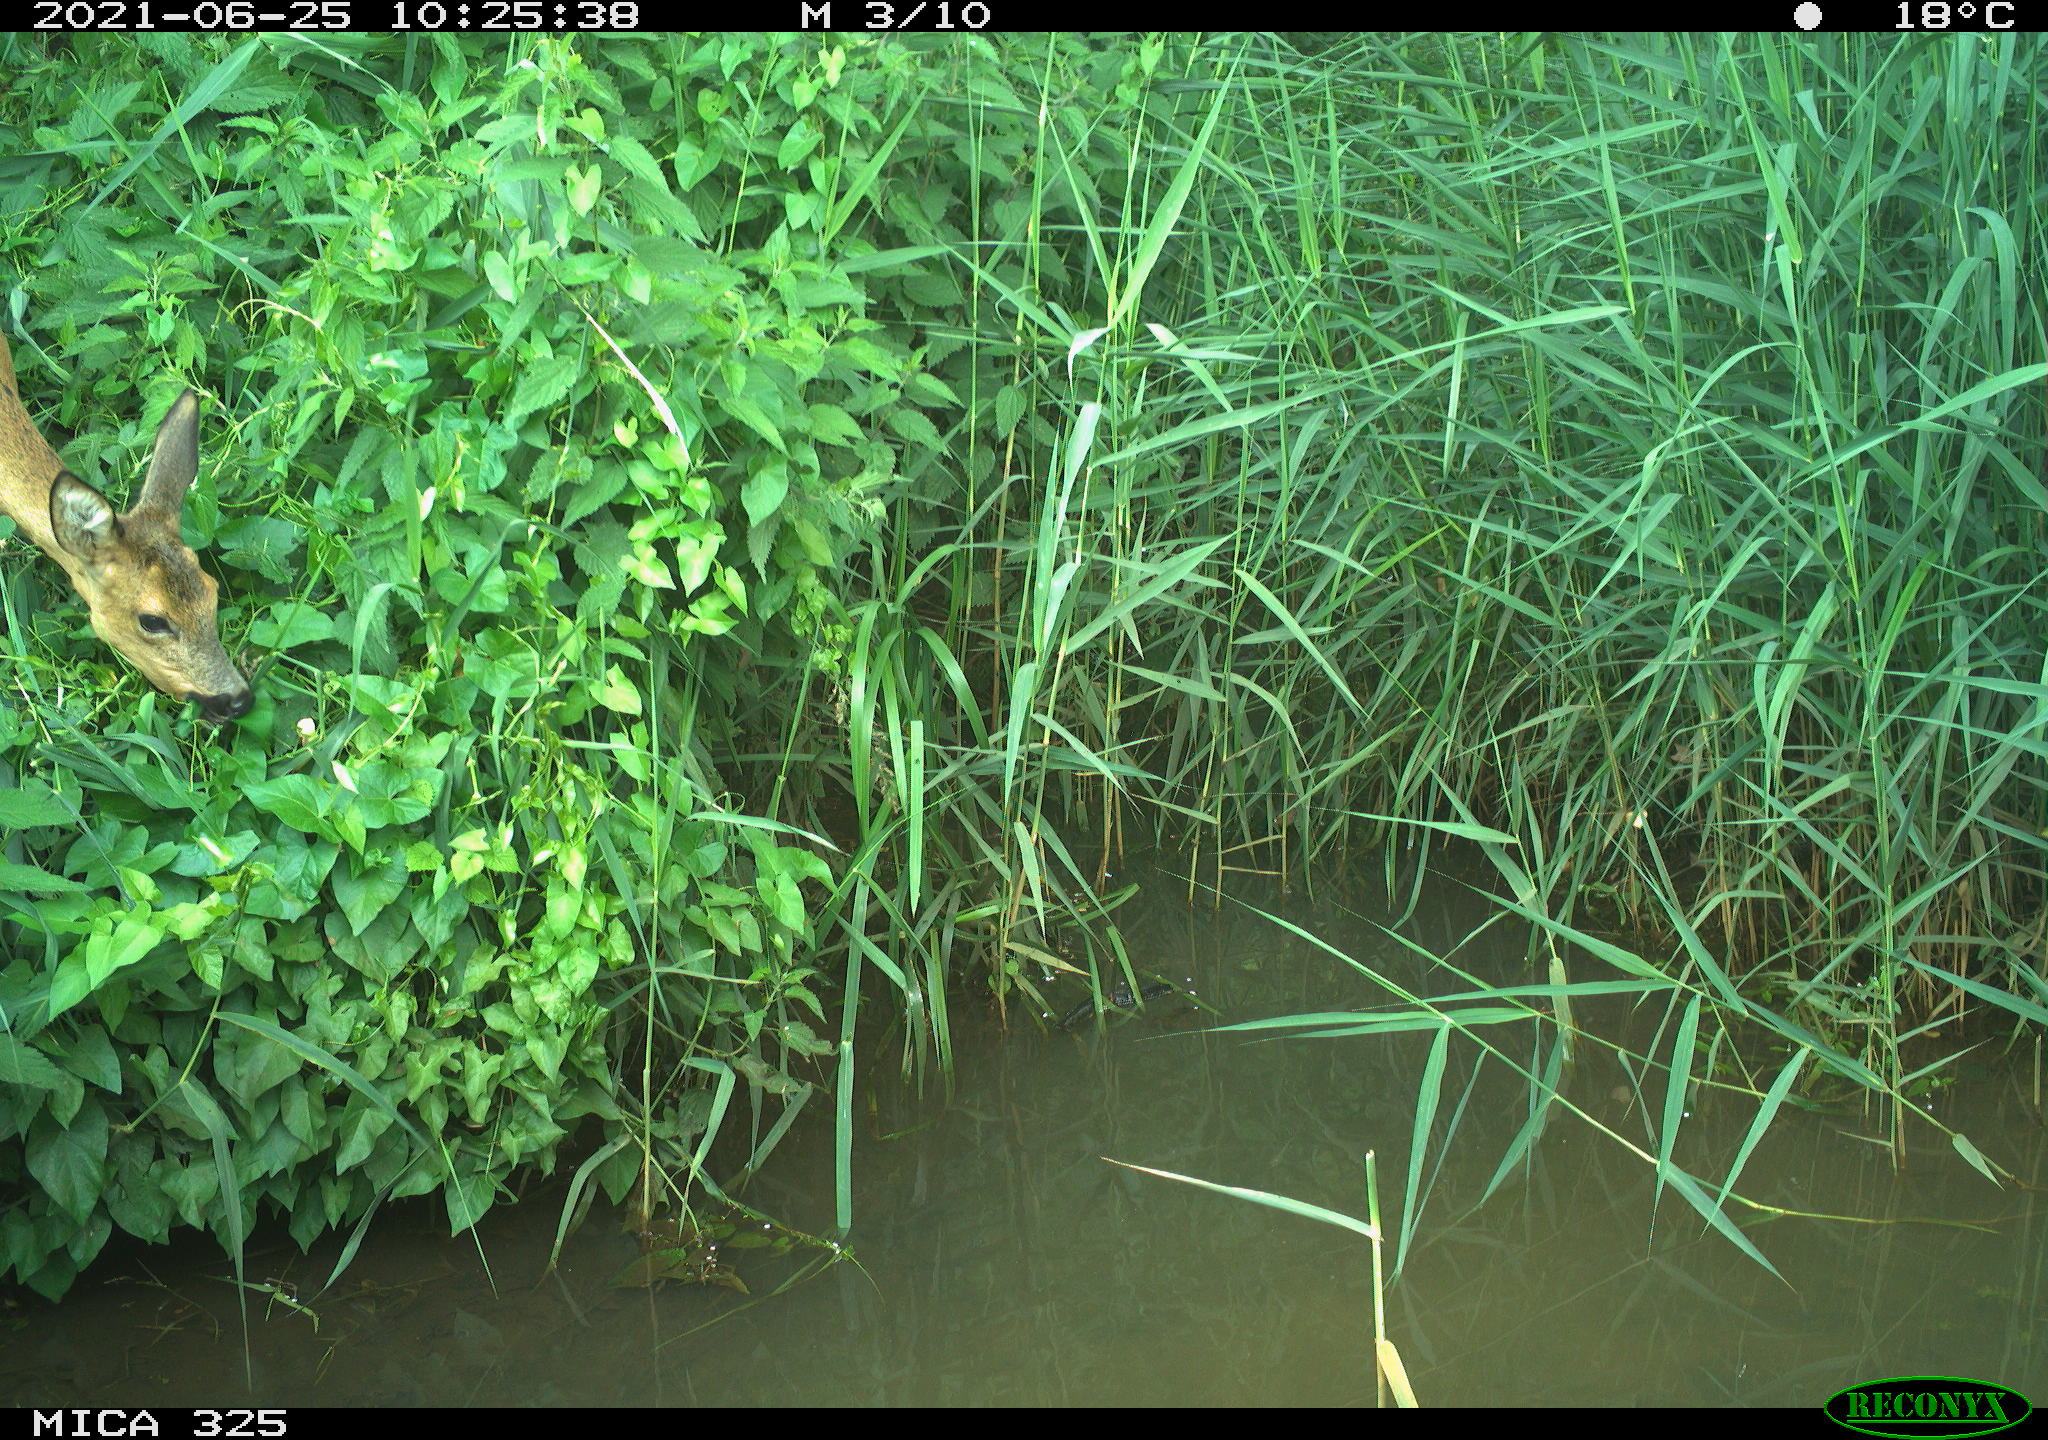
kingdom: Animalia
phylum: Chordata
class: Mammalia
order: Artiodactyla
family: Cervidae
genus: Capreolus
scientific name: Capreolus capreolus
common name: Western roe deer
